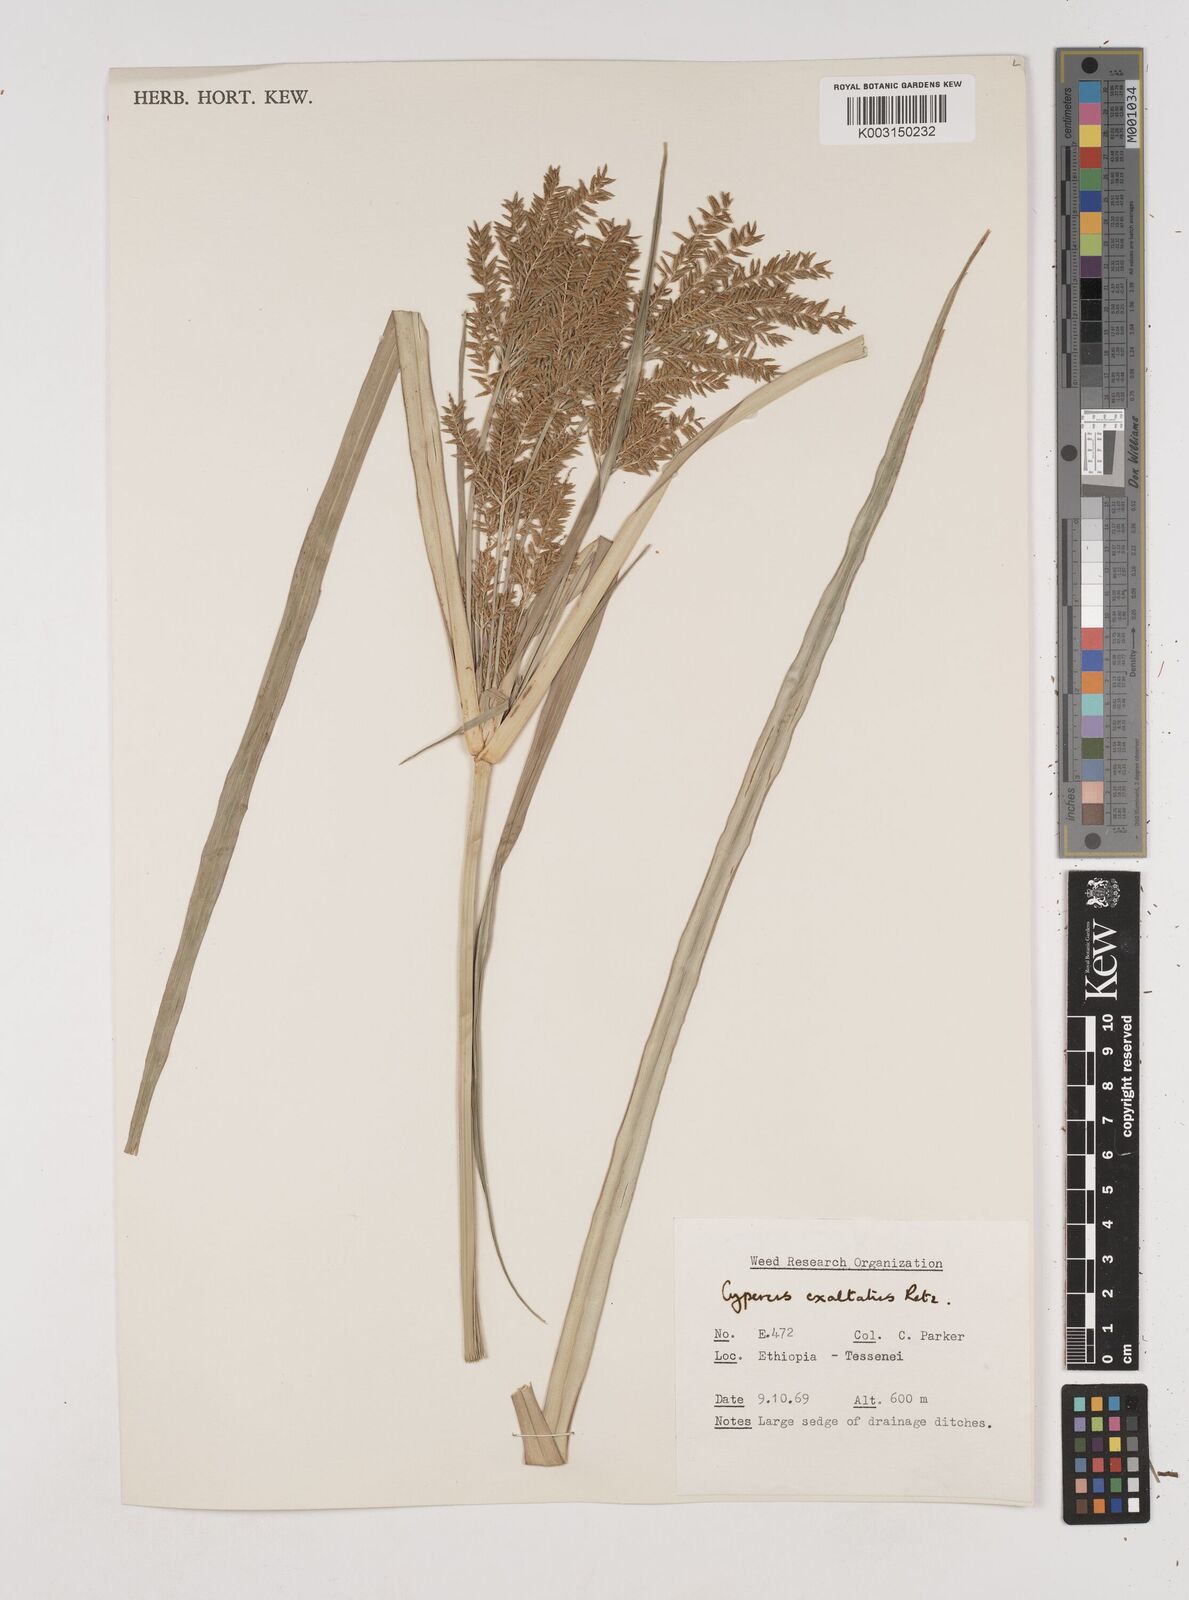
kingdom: Plantae
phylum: Tracheophyta
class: Liliopsida
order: Poales
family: Cyperaceae
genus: Cyperus
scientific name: Cyperus exaltatus
